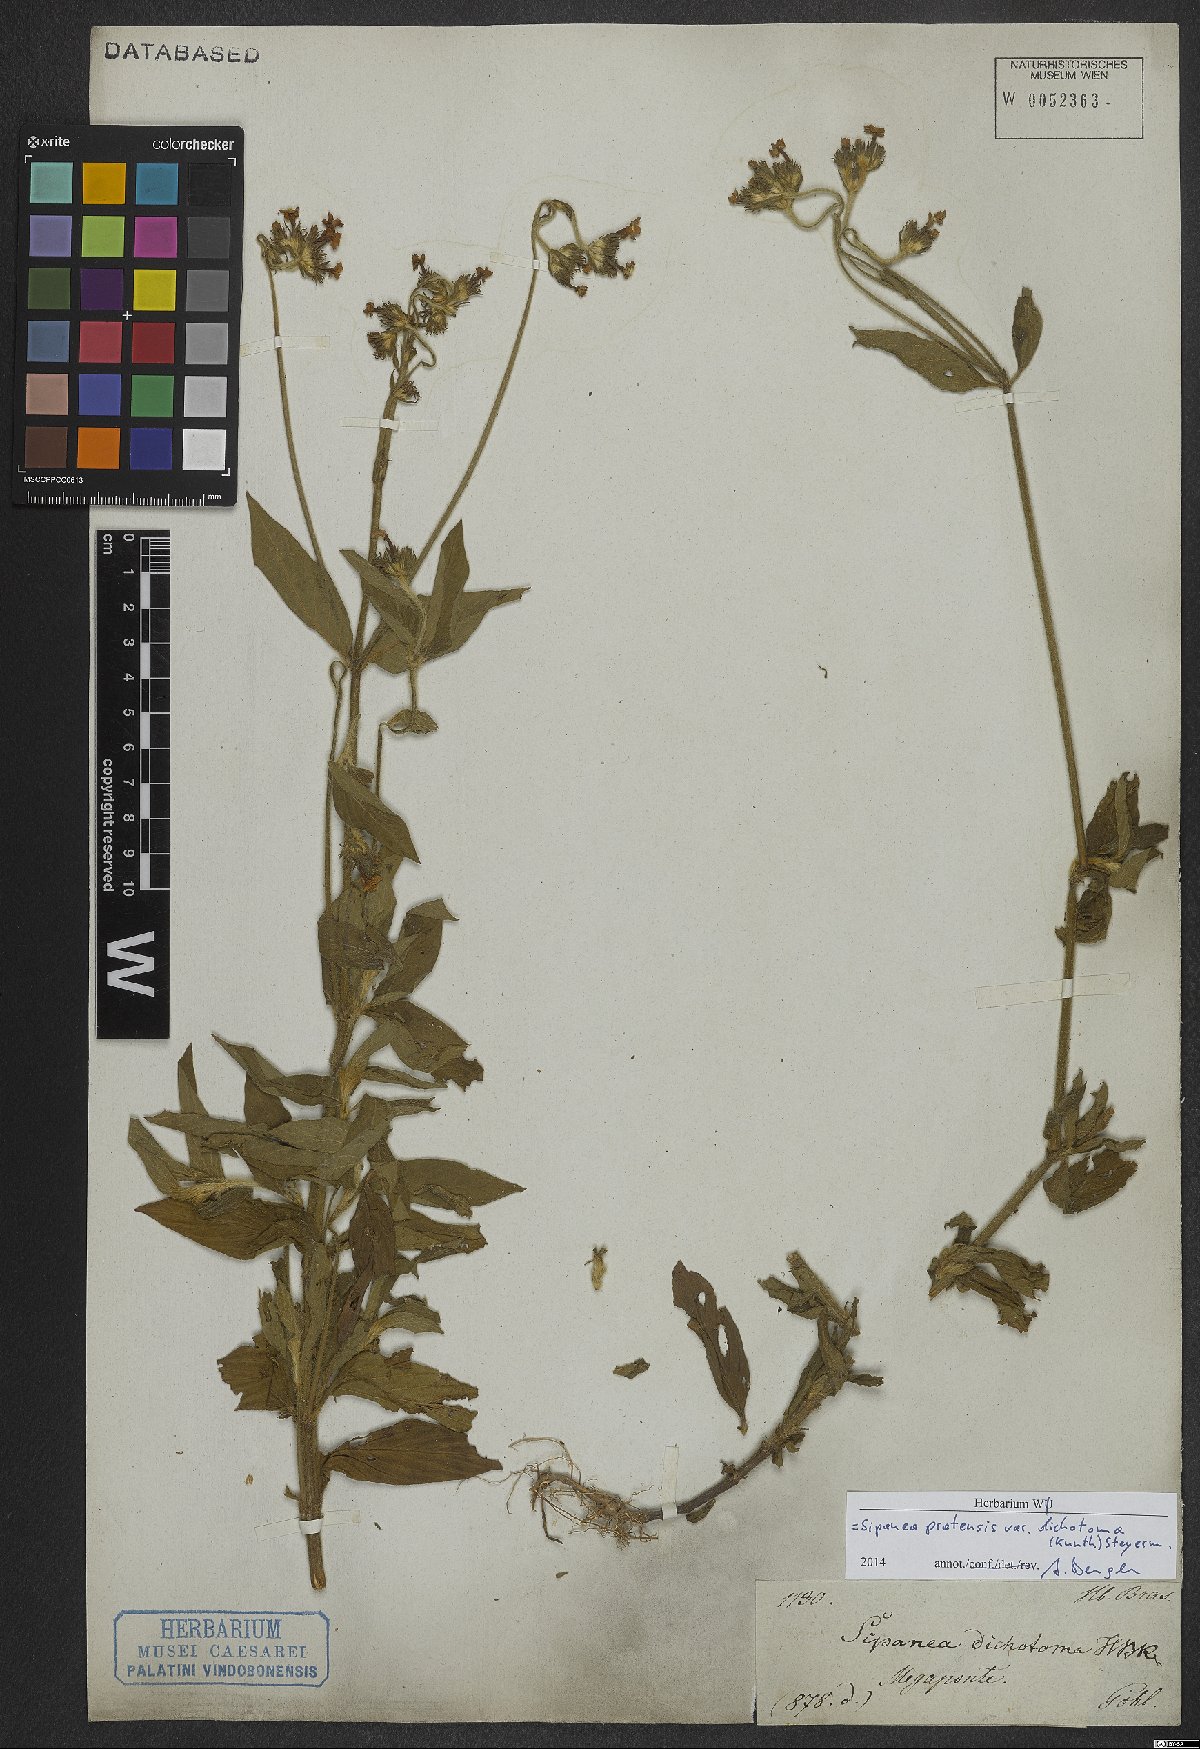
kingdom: Plantae
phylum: Tracheophyta
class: Magnoliopsida
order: Gentianales
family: Rubiaceae
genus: Sipanea
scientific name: Sipanea pratensis
